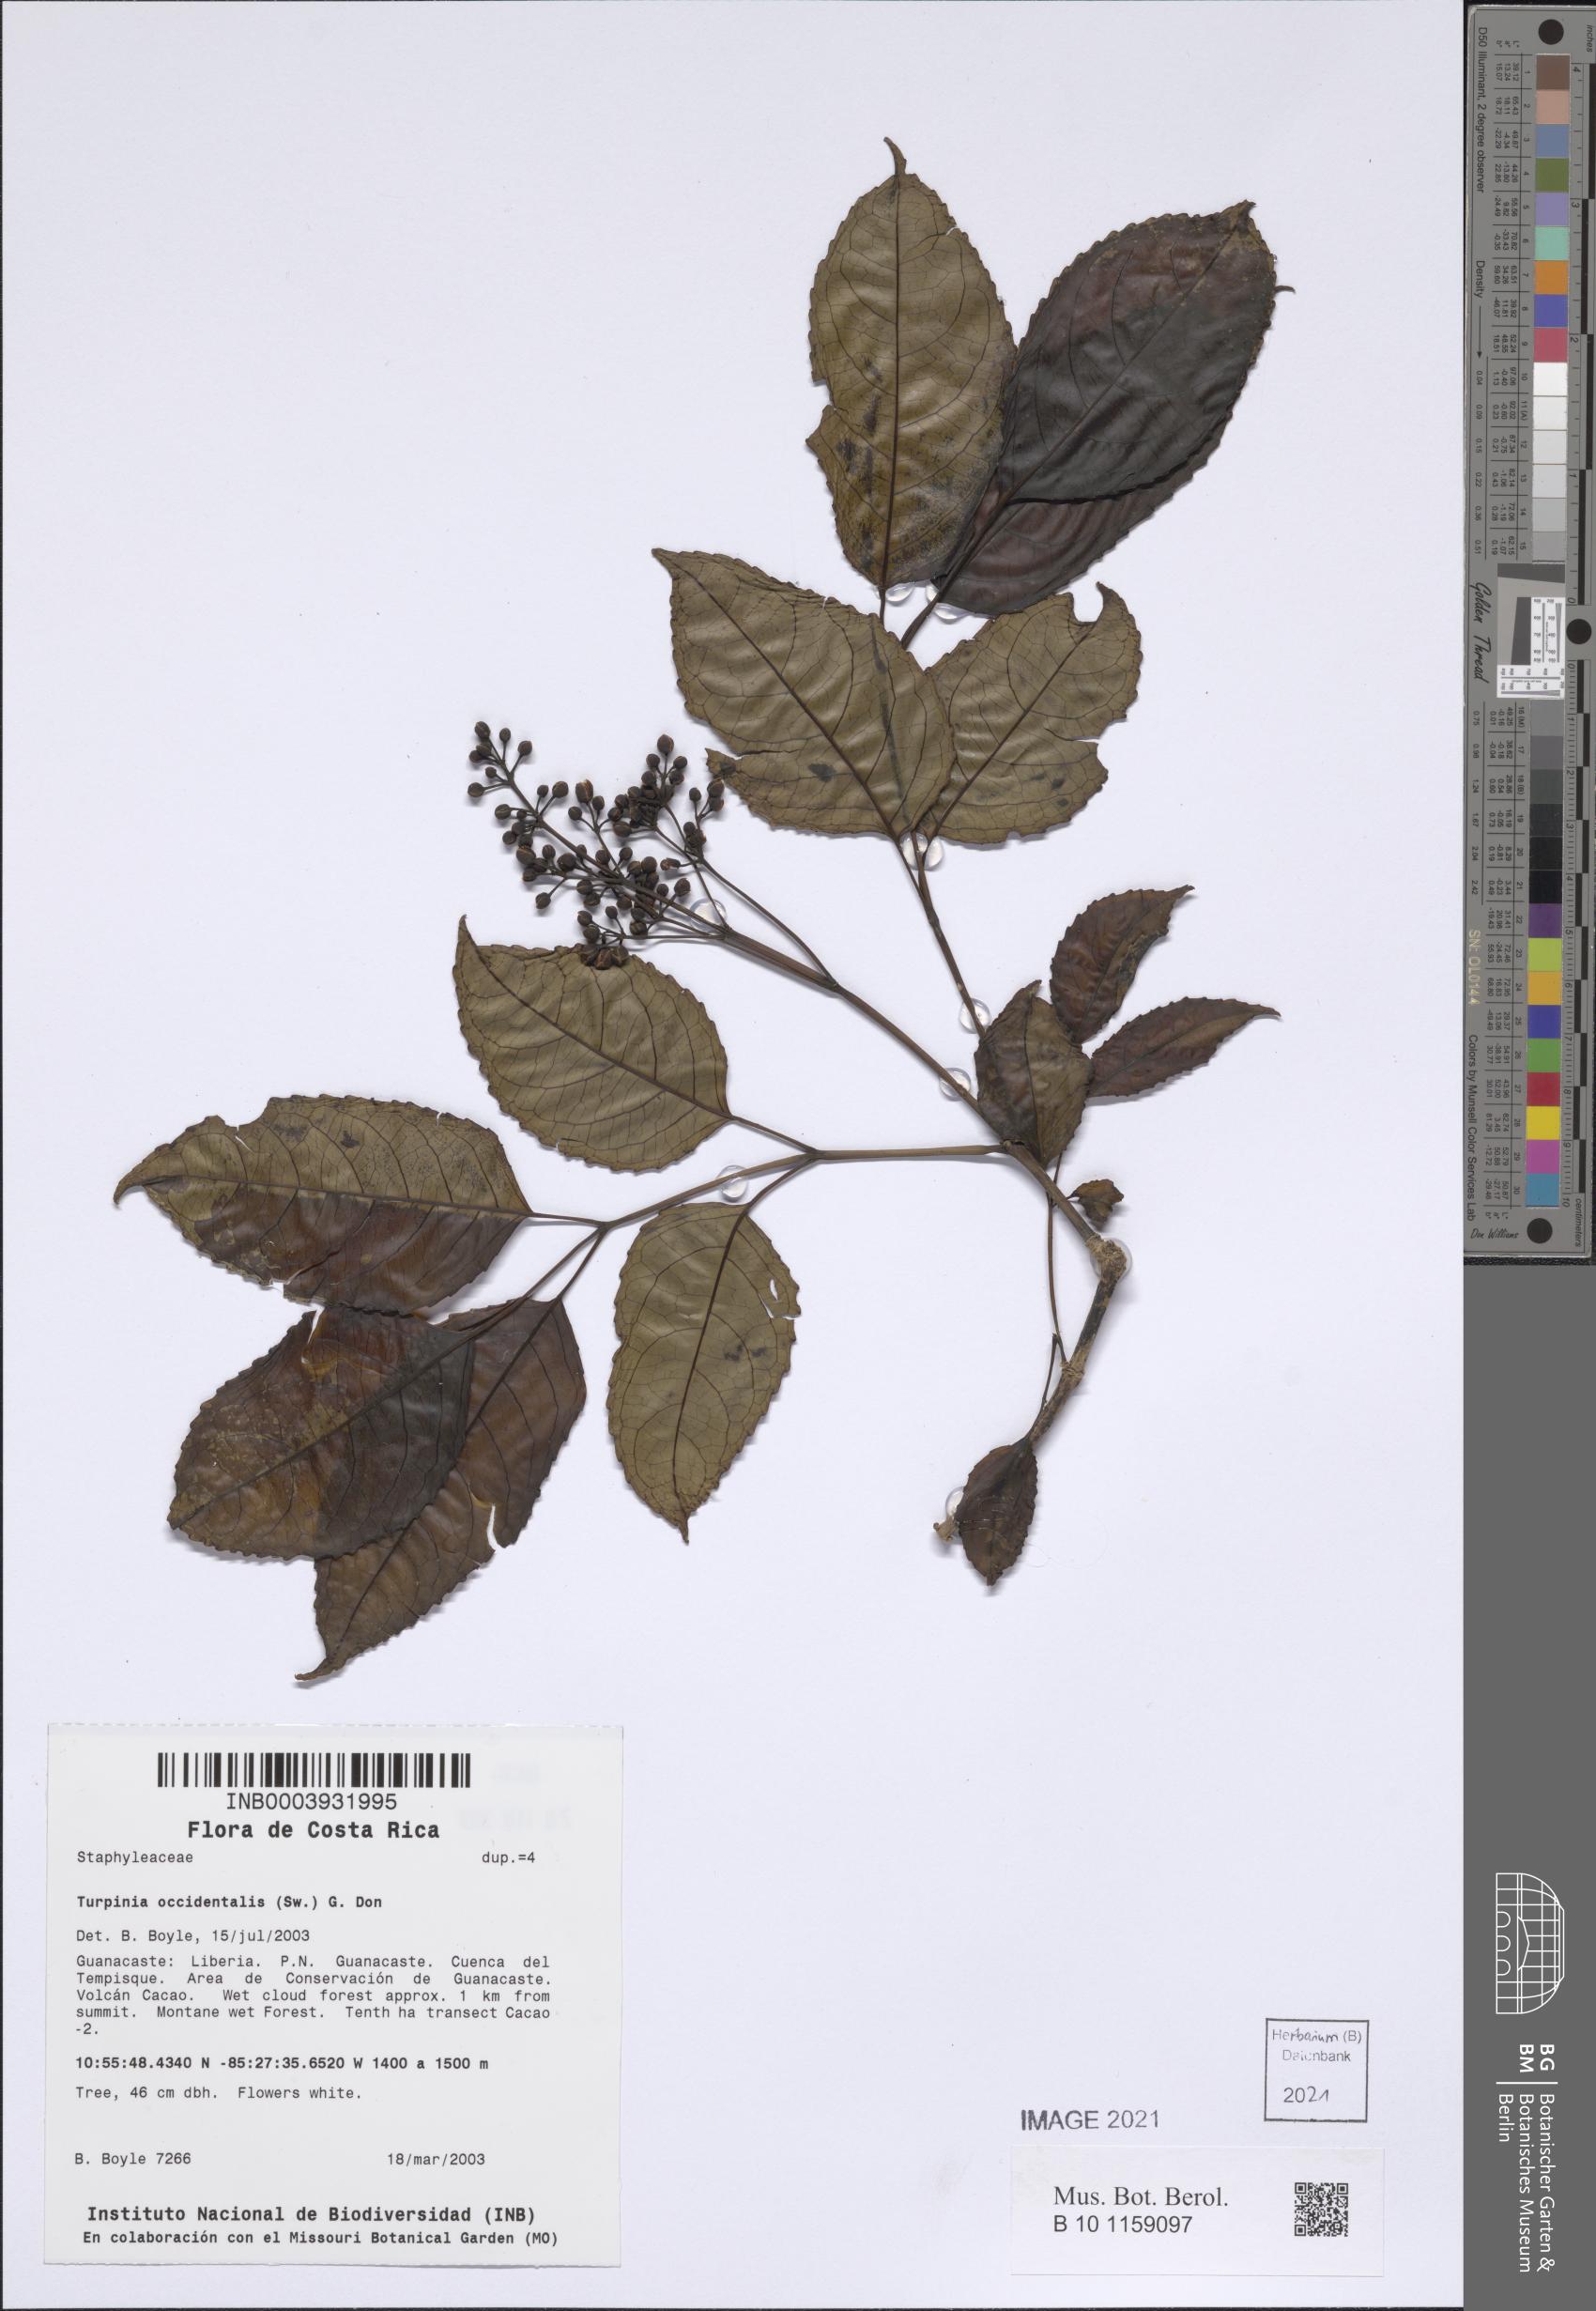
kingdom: Plantae
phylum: Tracheophyta
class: Magnoliopsida
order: Crossosomatales
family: Staphyleaceae
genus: Turpinia
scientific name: Turpinia occidentalis
